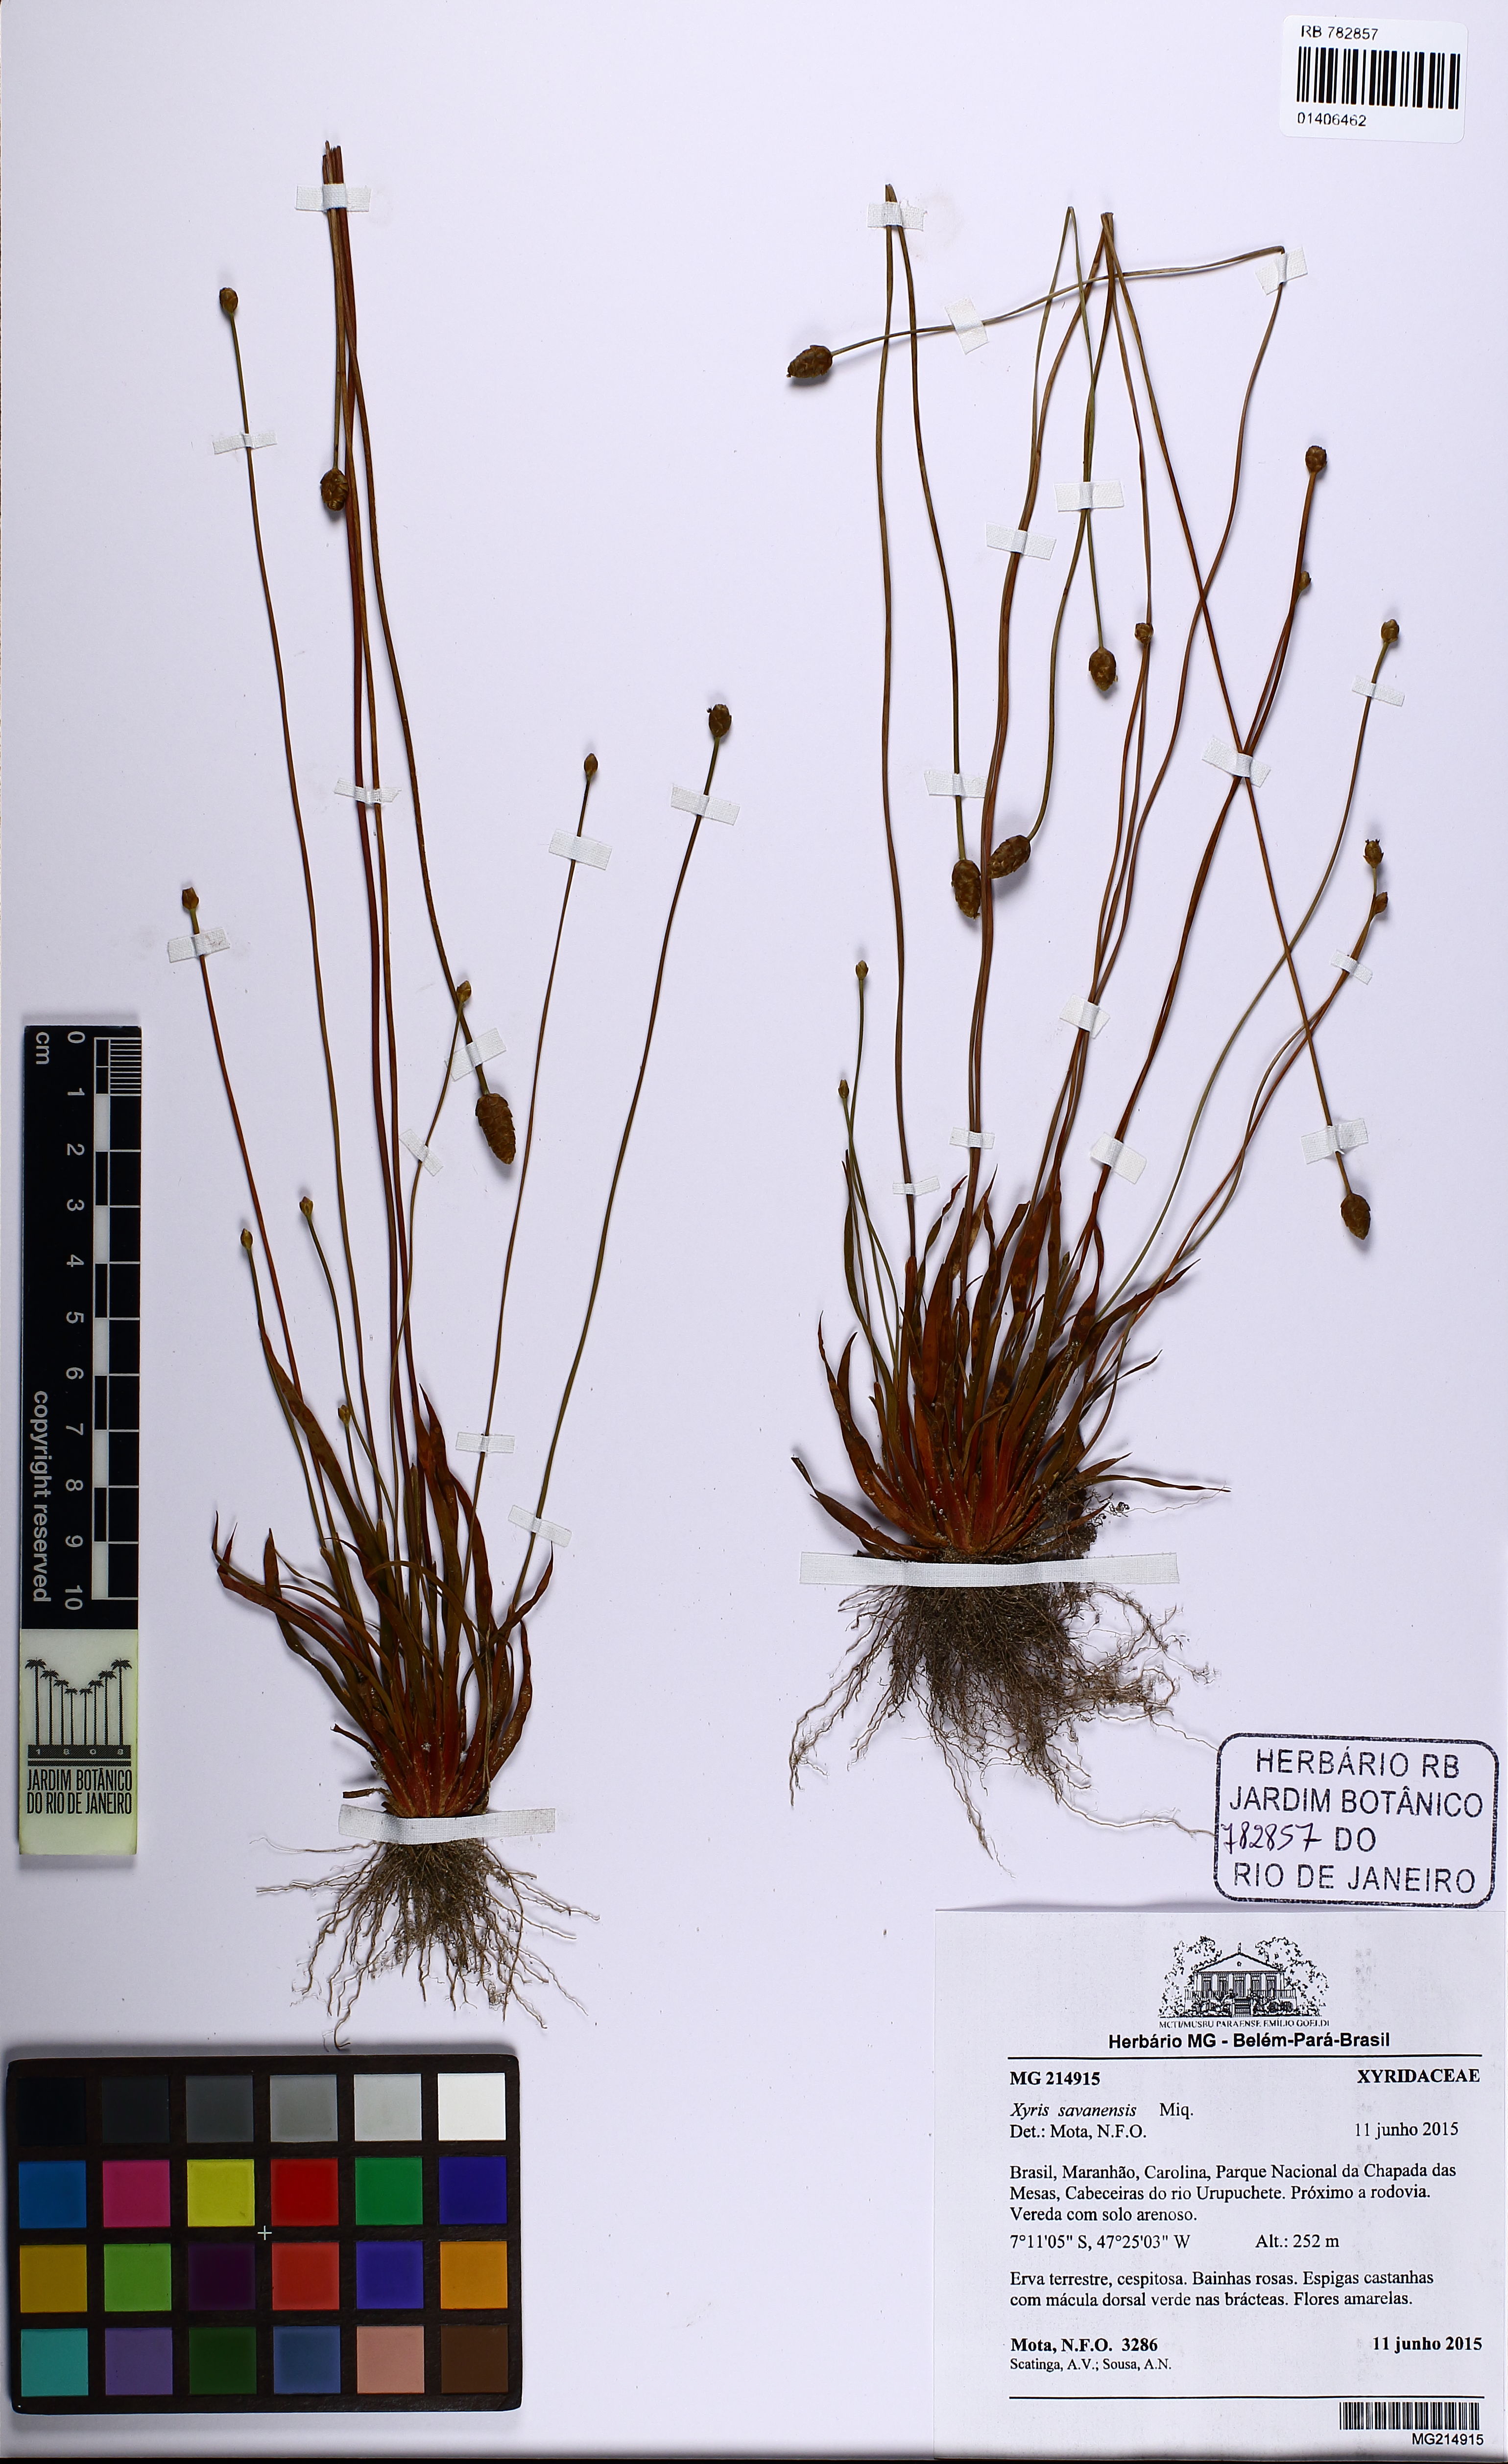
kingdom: Plantae
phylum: Tracheophyta
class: Liliopsida
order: Poales
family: Xyridaceae
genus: Xyris
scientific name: Xyris savanensis
